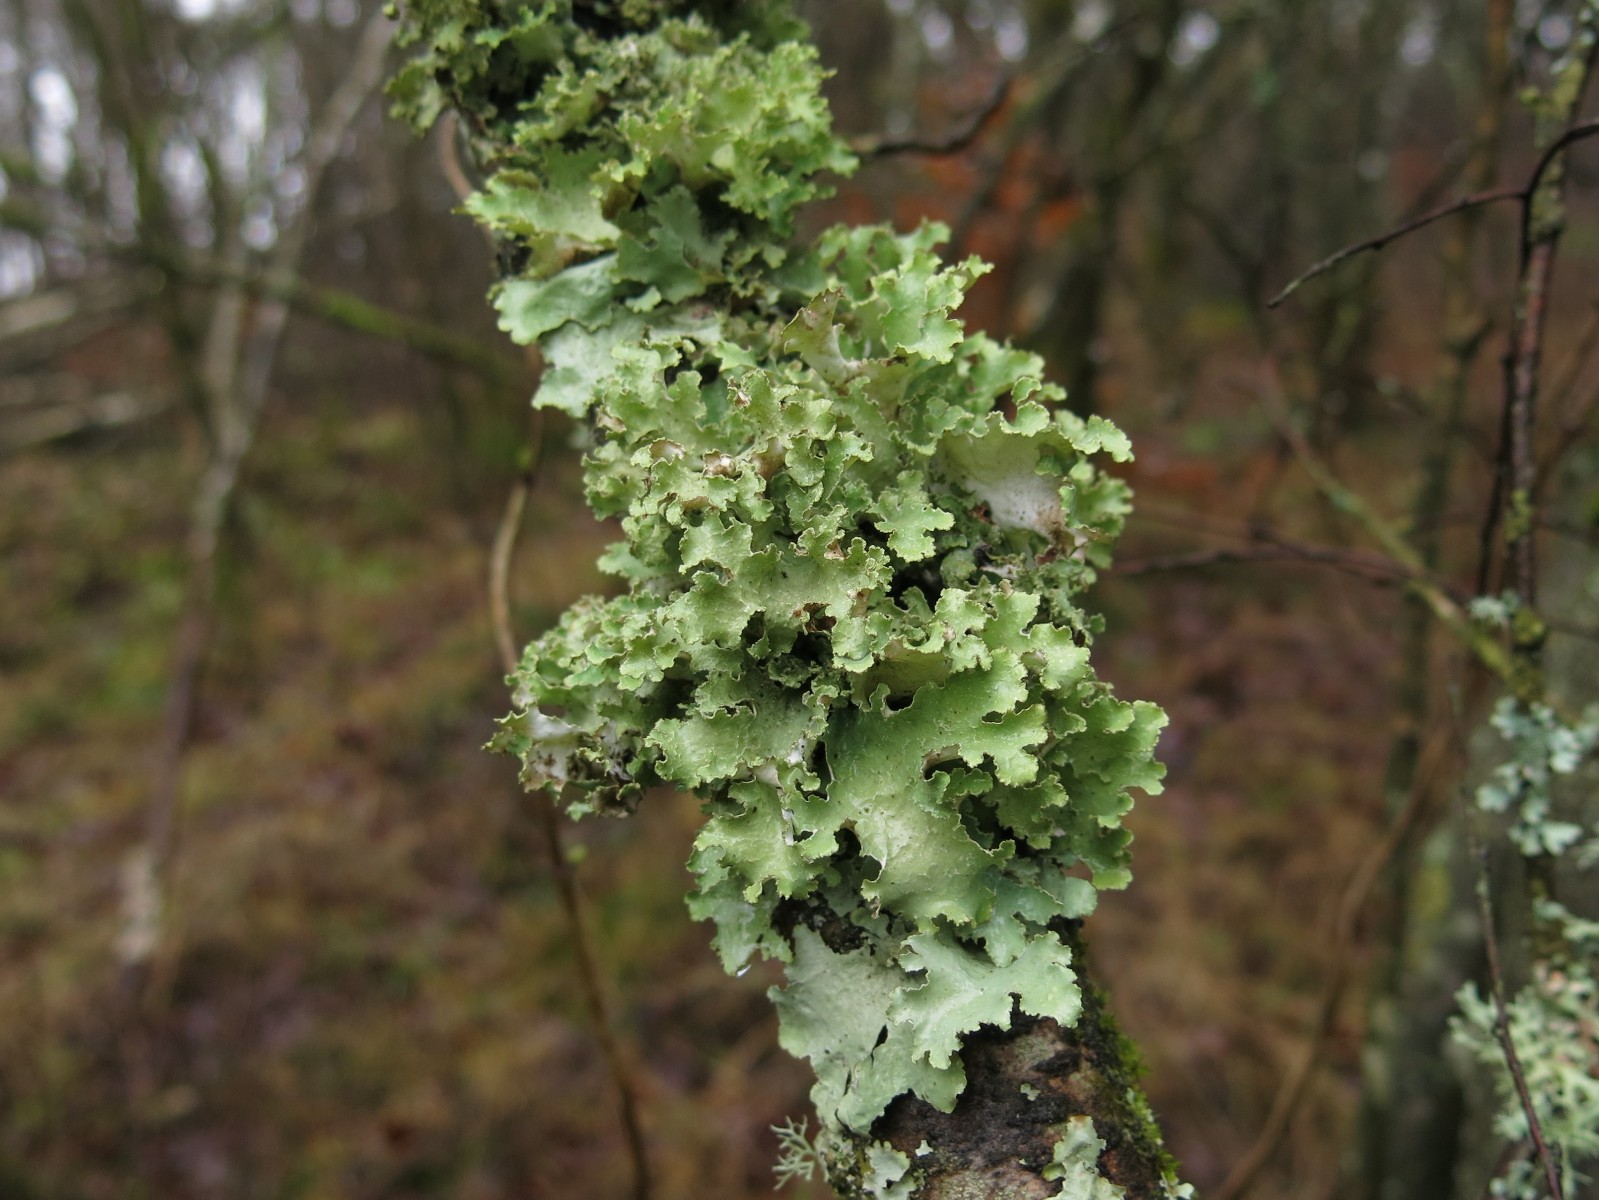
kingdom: Fungi
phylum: Ascomycota
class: Lecanoromycetes
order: Lecanorales
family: Parmeliaceae
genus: Platismatia
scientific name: Platismatia glauca
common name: blågrå papirlav
